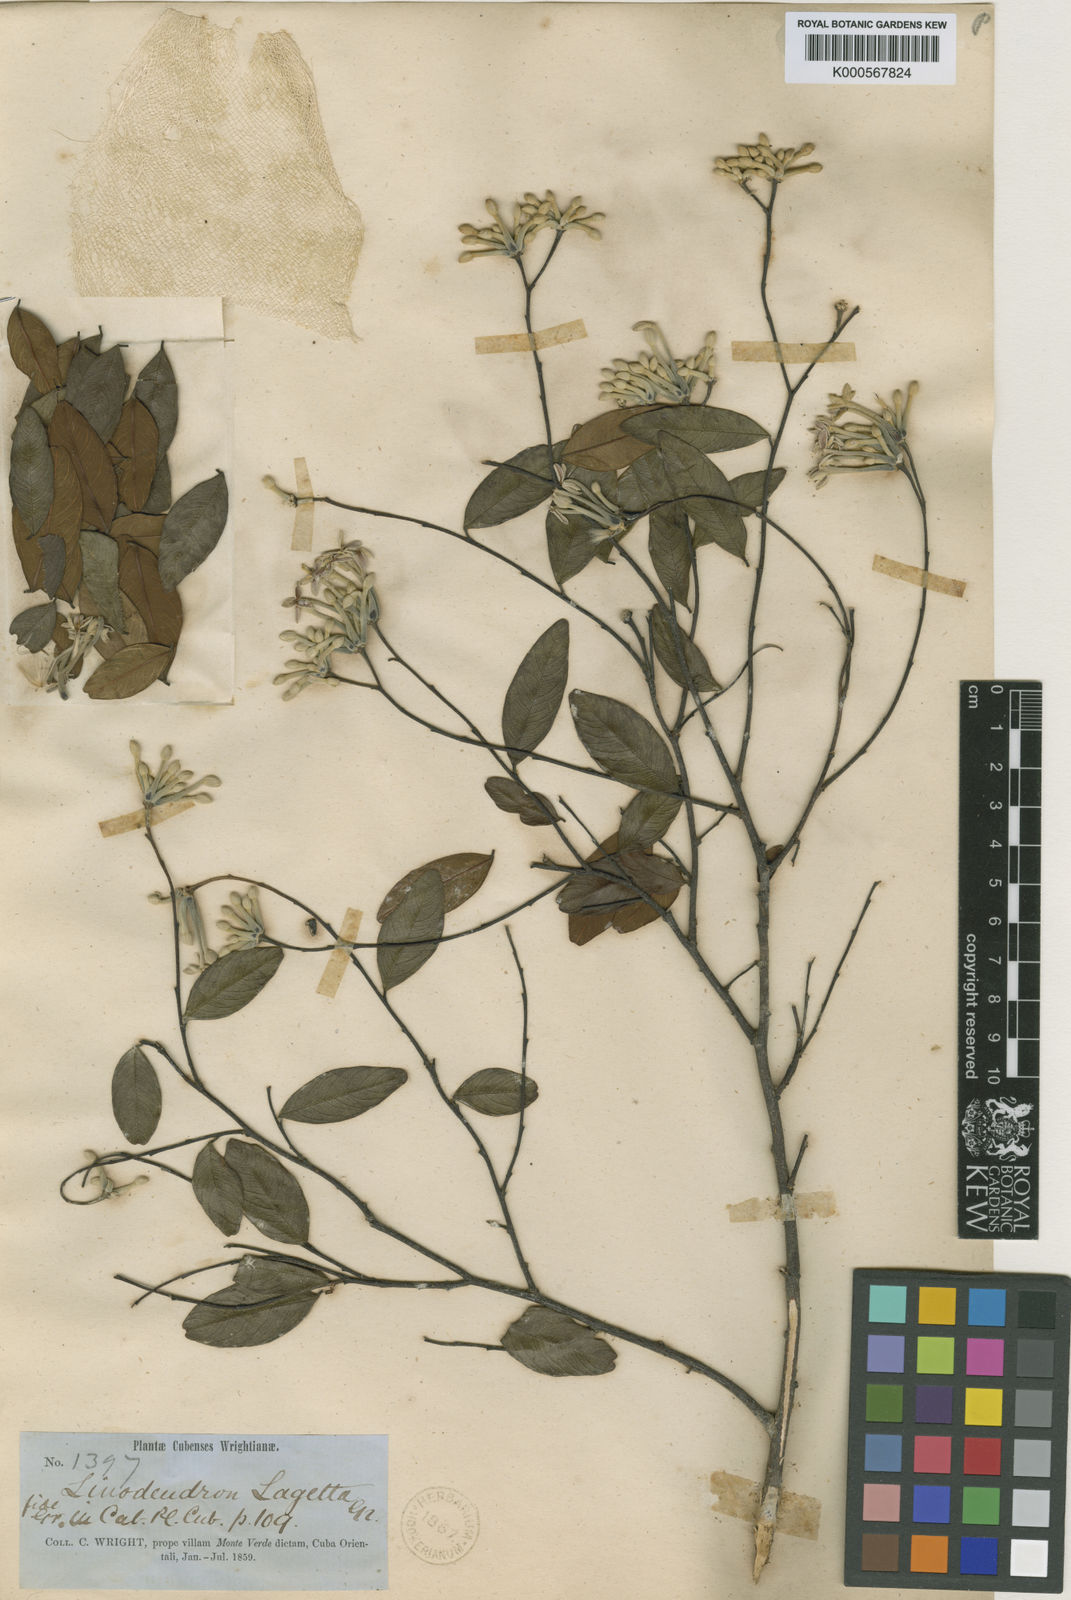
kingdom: Plantae
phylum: Tracheophyta
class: Magnoliopsida
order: Malvales
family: Thymelaeaceae
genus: Linodendron
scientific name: Linodendron cubanum
